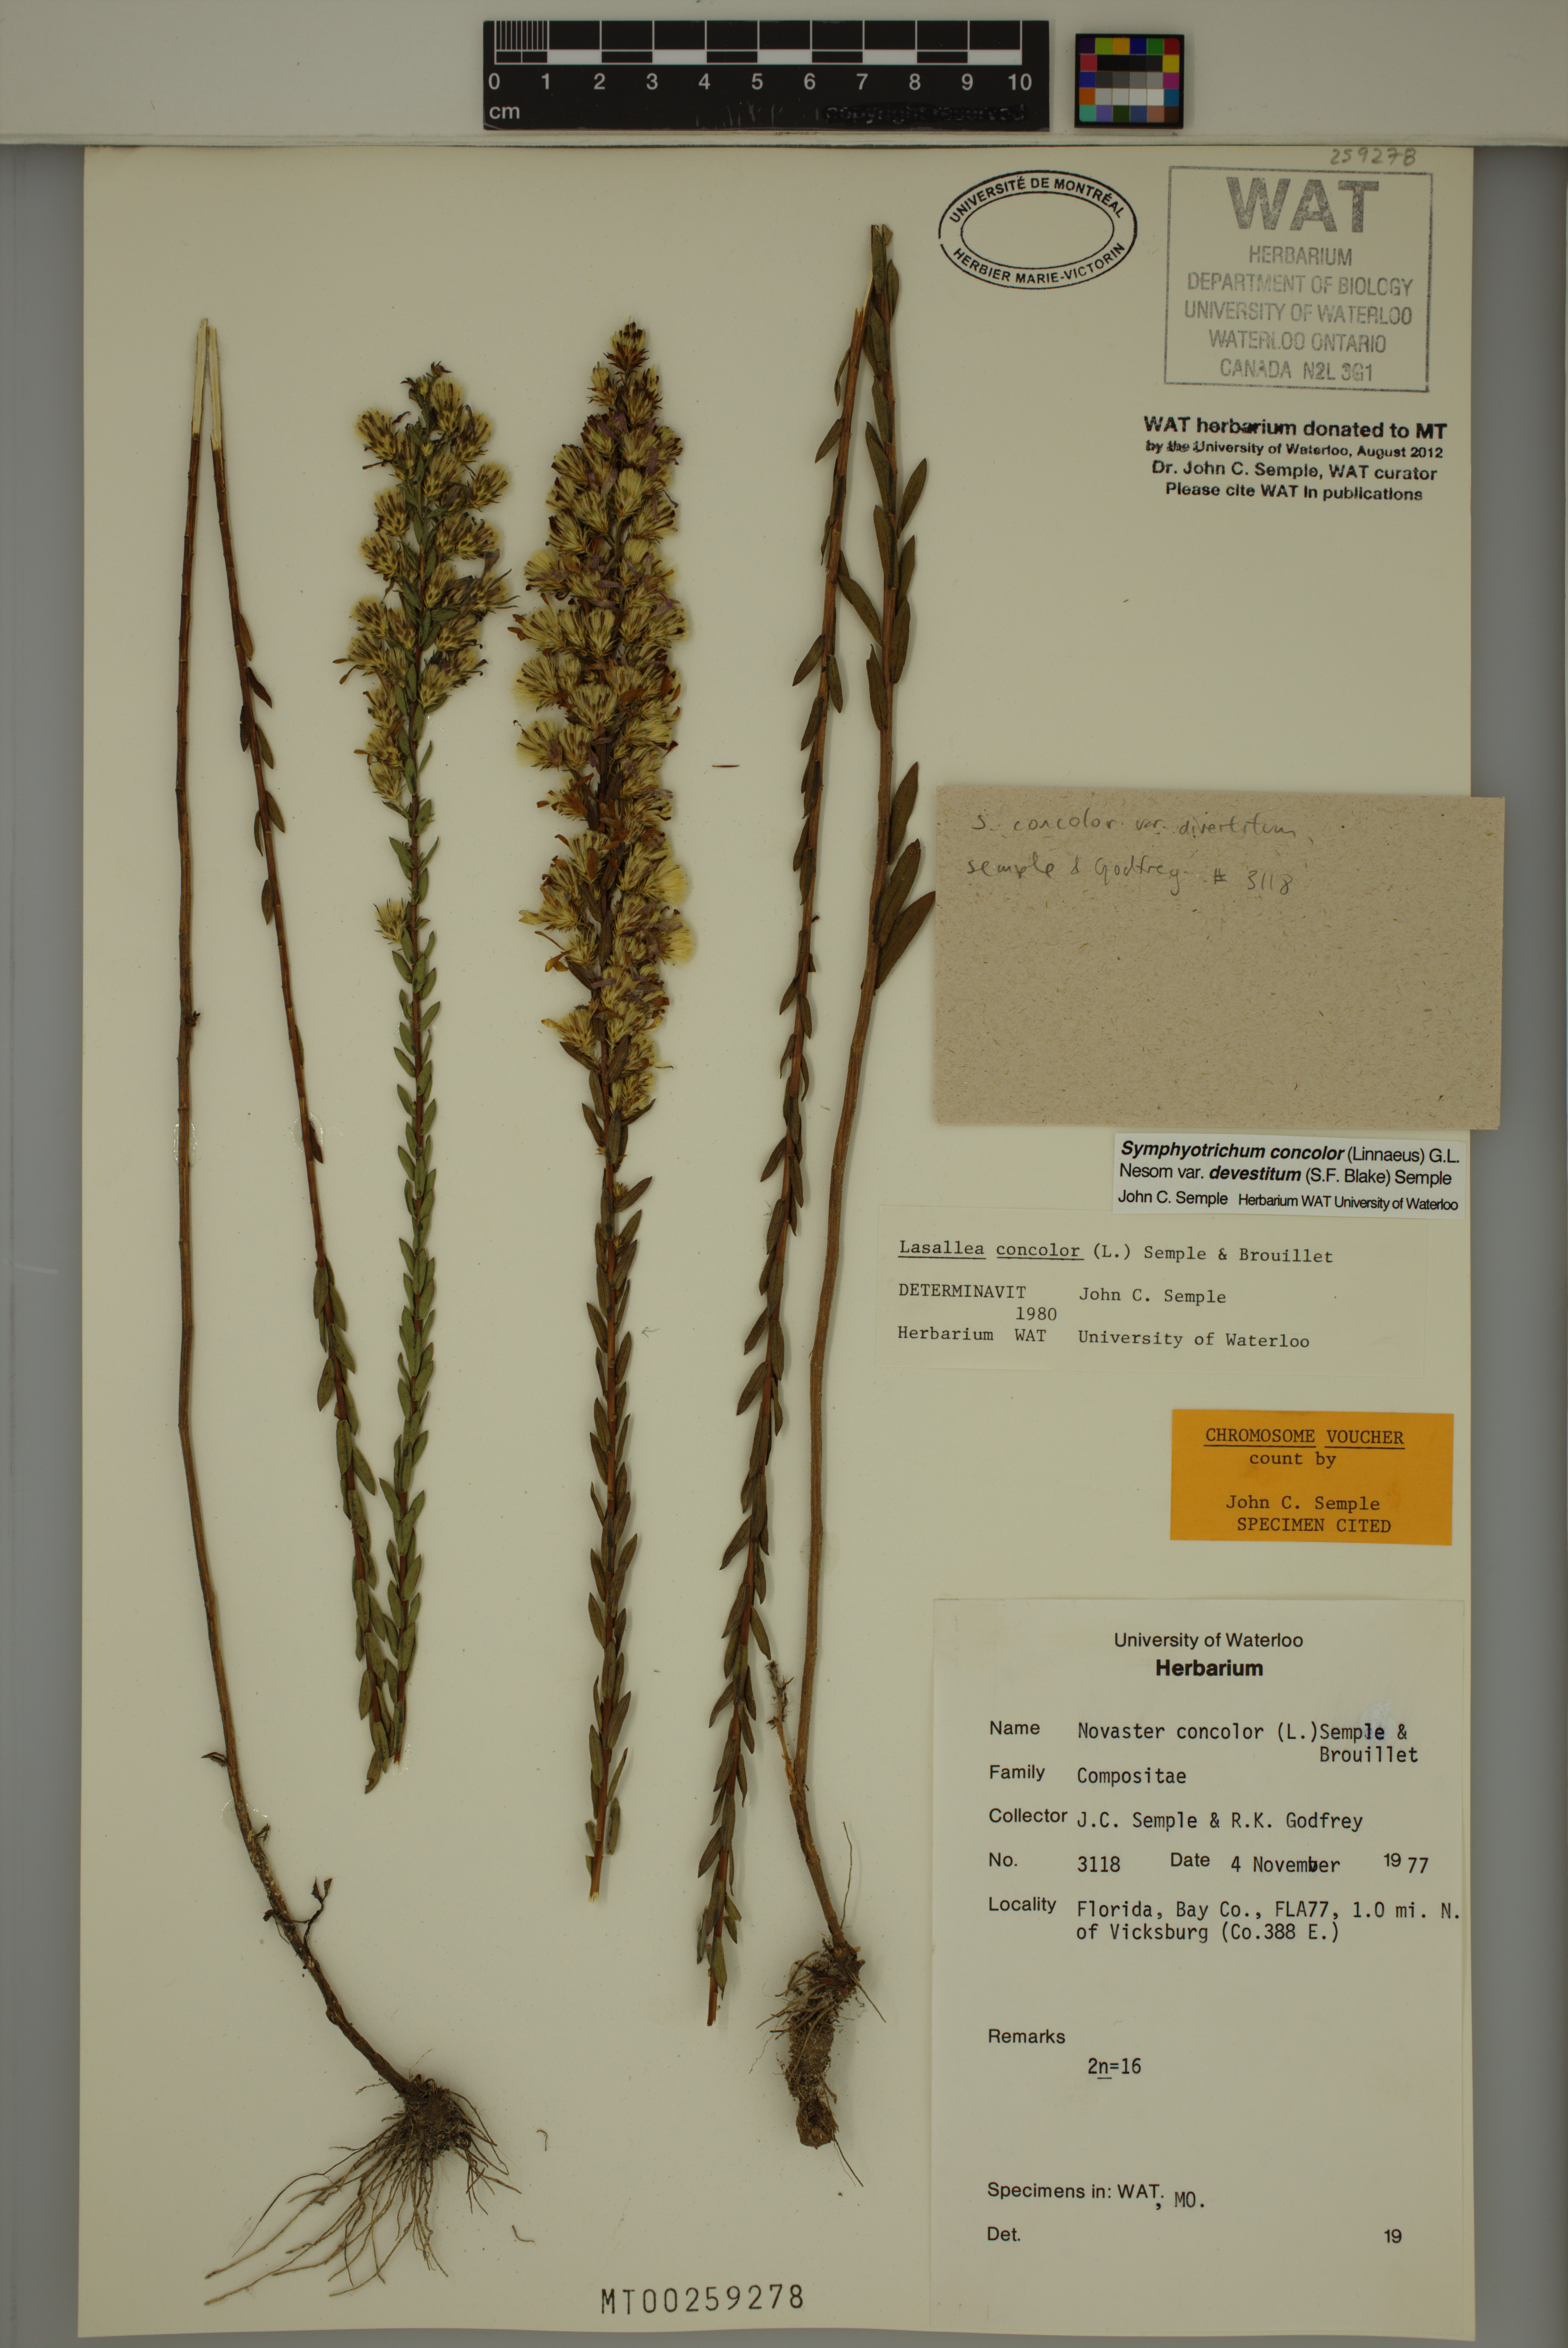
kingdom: Plantae
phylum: Tracheophyta
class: Magnoliopsida
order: Asterales
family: Asteraceae
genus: Symphyotrichum
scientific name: Symphyotrichum concolor
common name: Eastern silver aster
